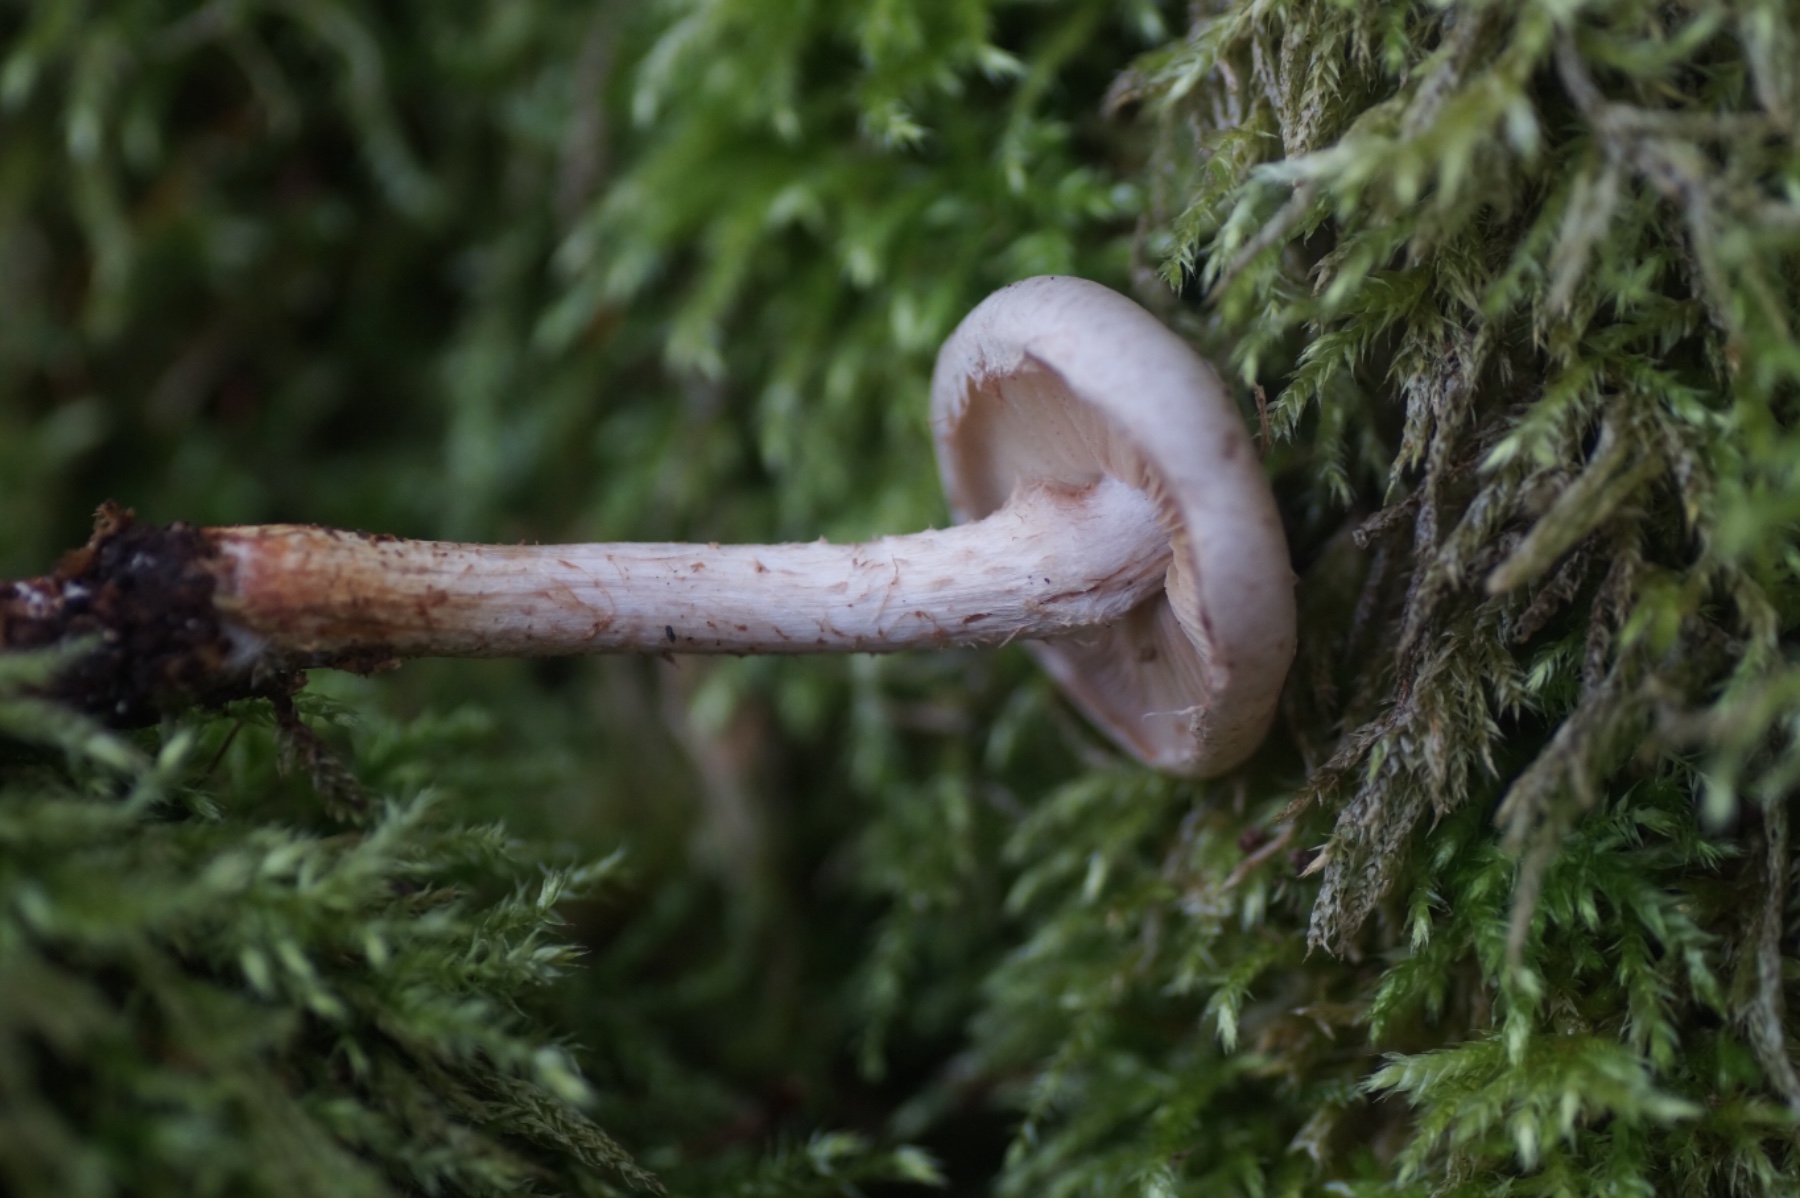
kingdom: Fungi
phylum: Basidiomycota
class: Agaricomycetes
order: Agaricales
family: Strophariaceae
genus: Pholiota
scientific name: Pholiota gummosa
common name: grøngul skælhat
